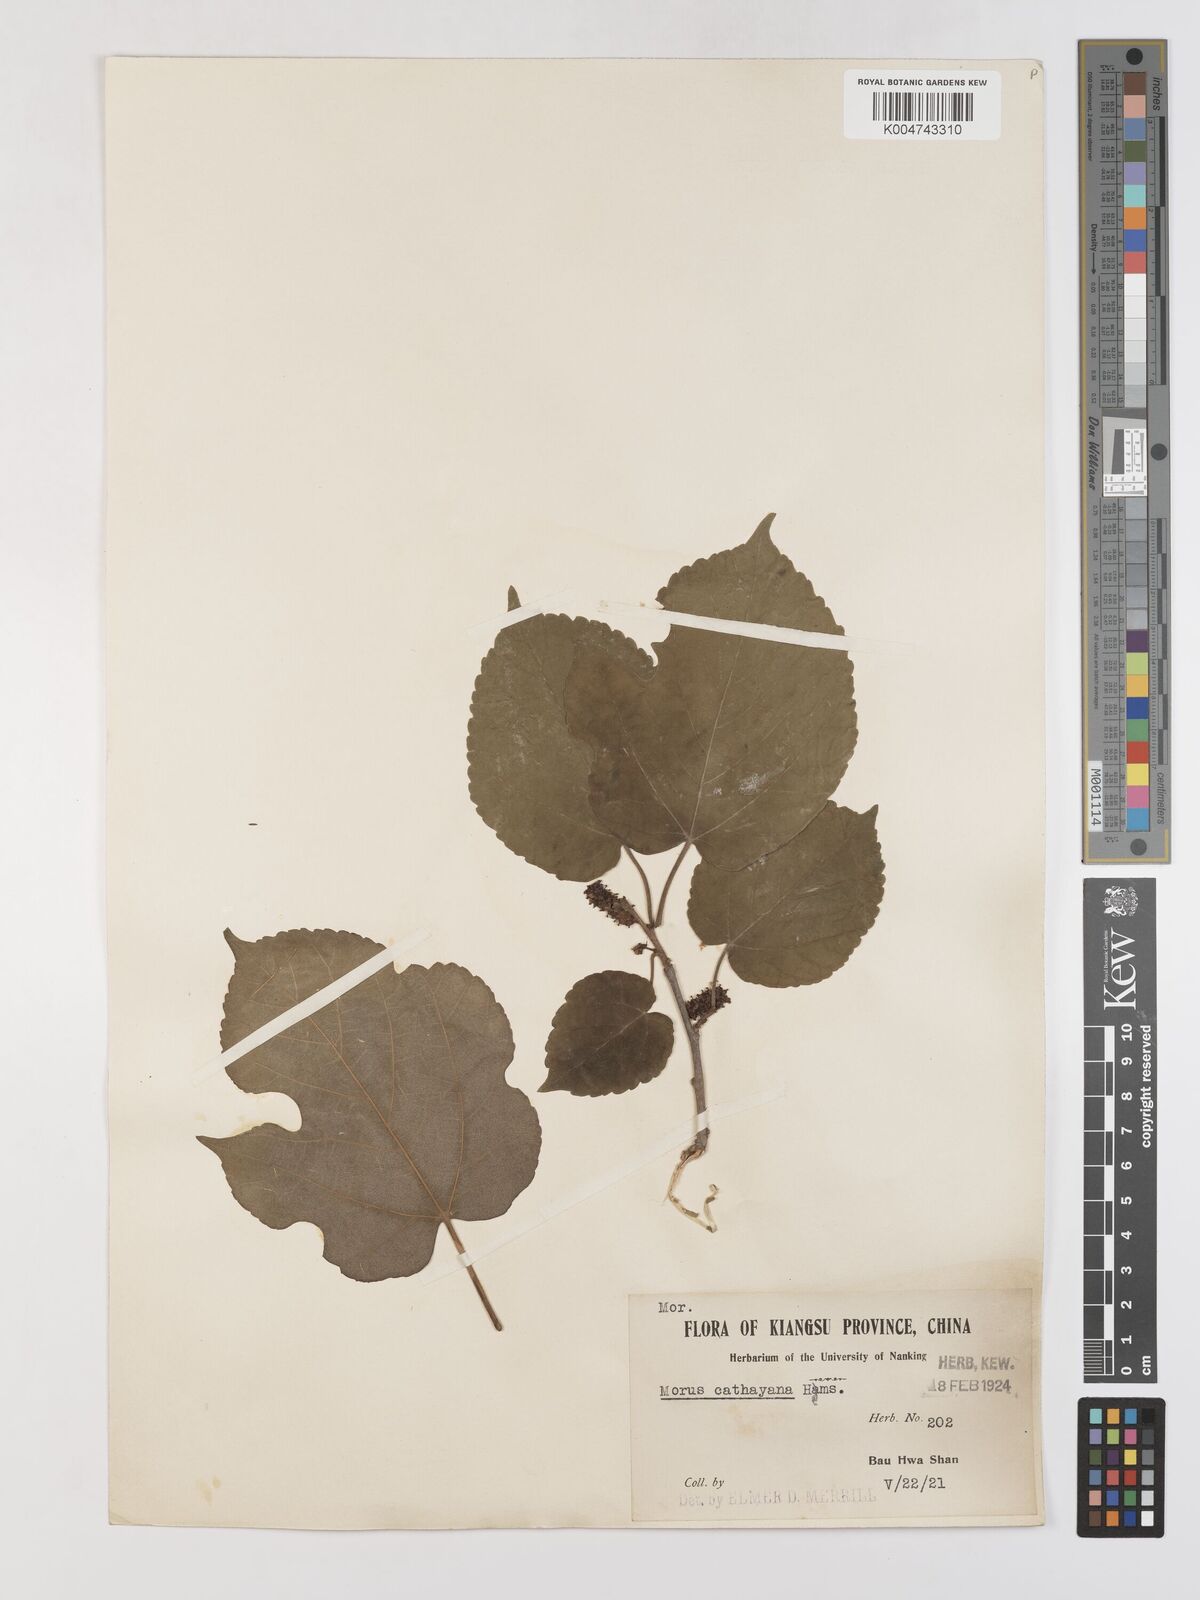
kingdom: Plantae
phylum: Tracheophyta
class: Magnoliopsida
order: Rosales
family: Moraceae
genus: Morus
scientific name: Morus cathayana
